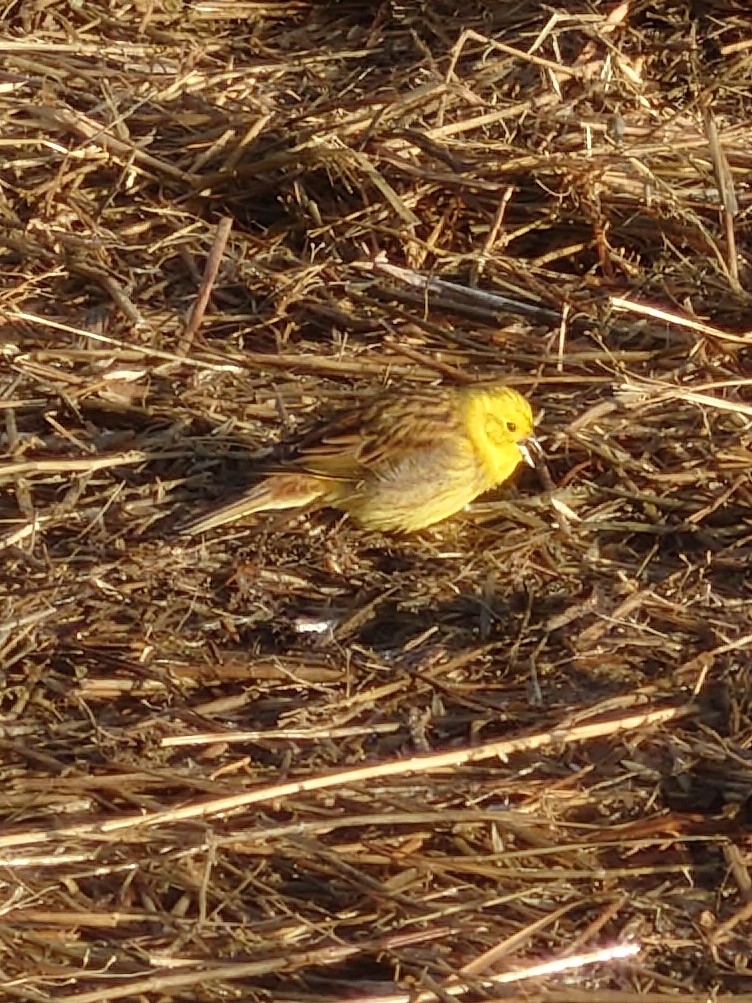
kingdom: Animalia
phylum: Chordata
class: Aves
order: Passeriformes
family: Emberizidae
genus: Emberiza
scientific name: Emberiza citrinella
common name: Gulspurv
